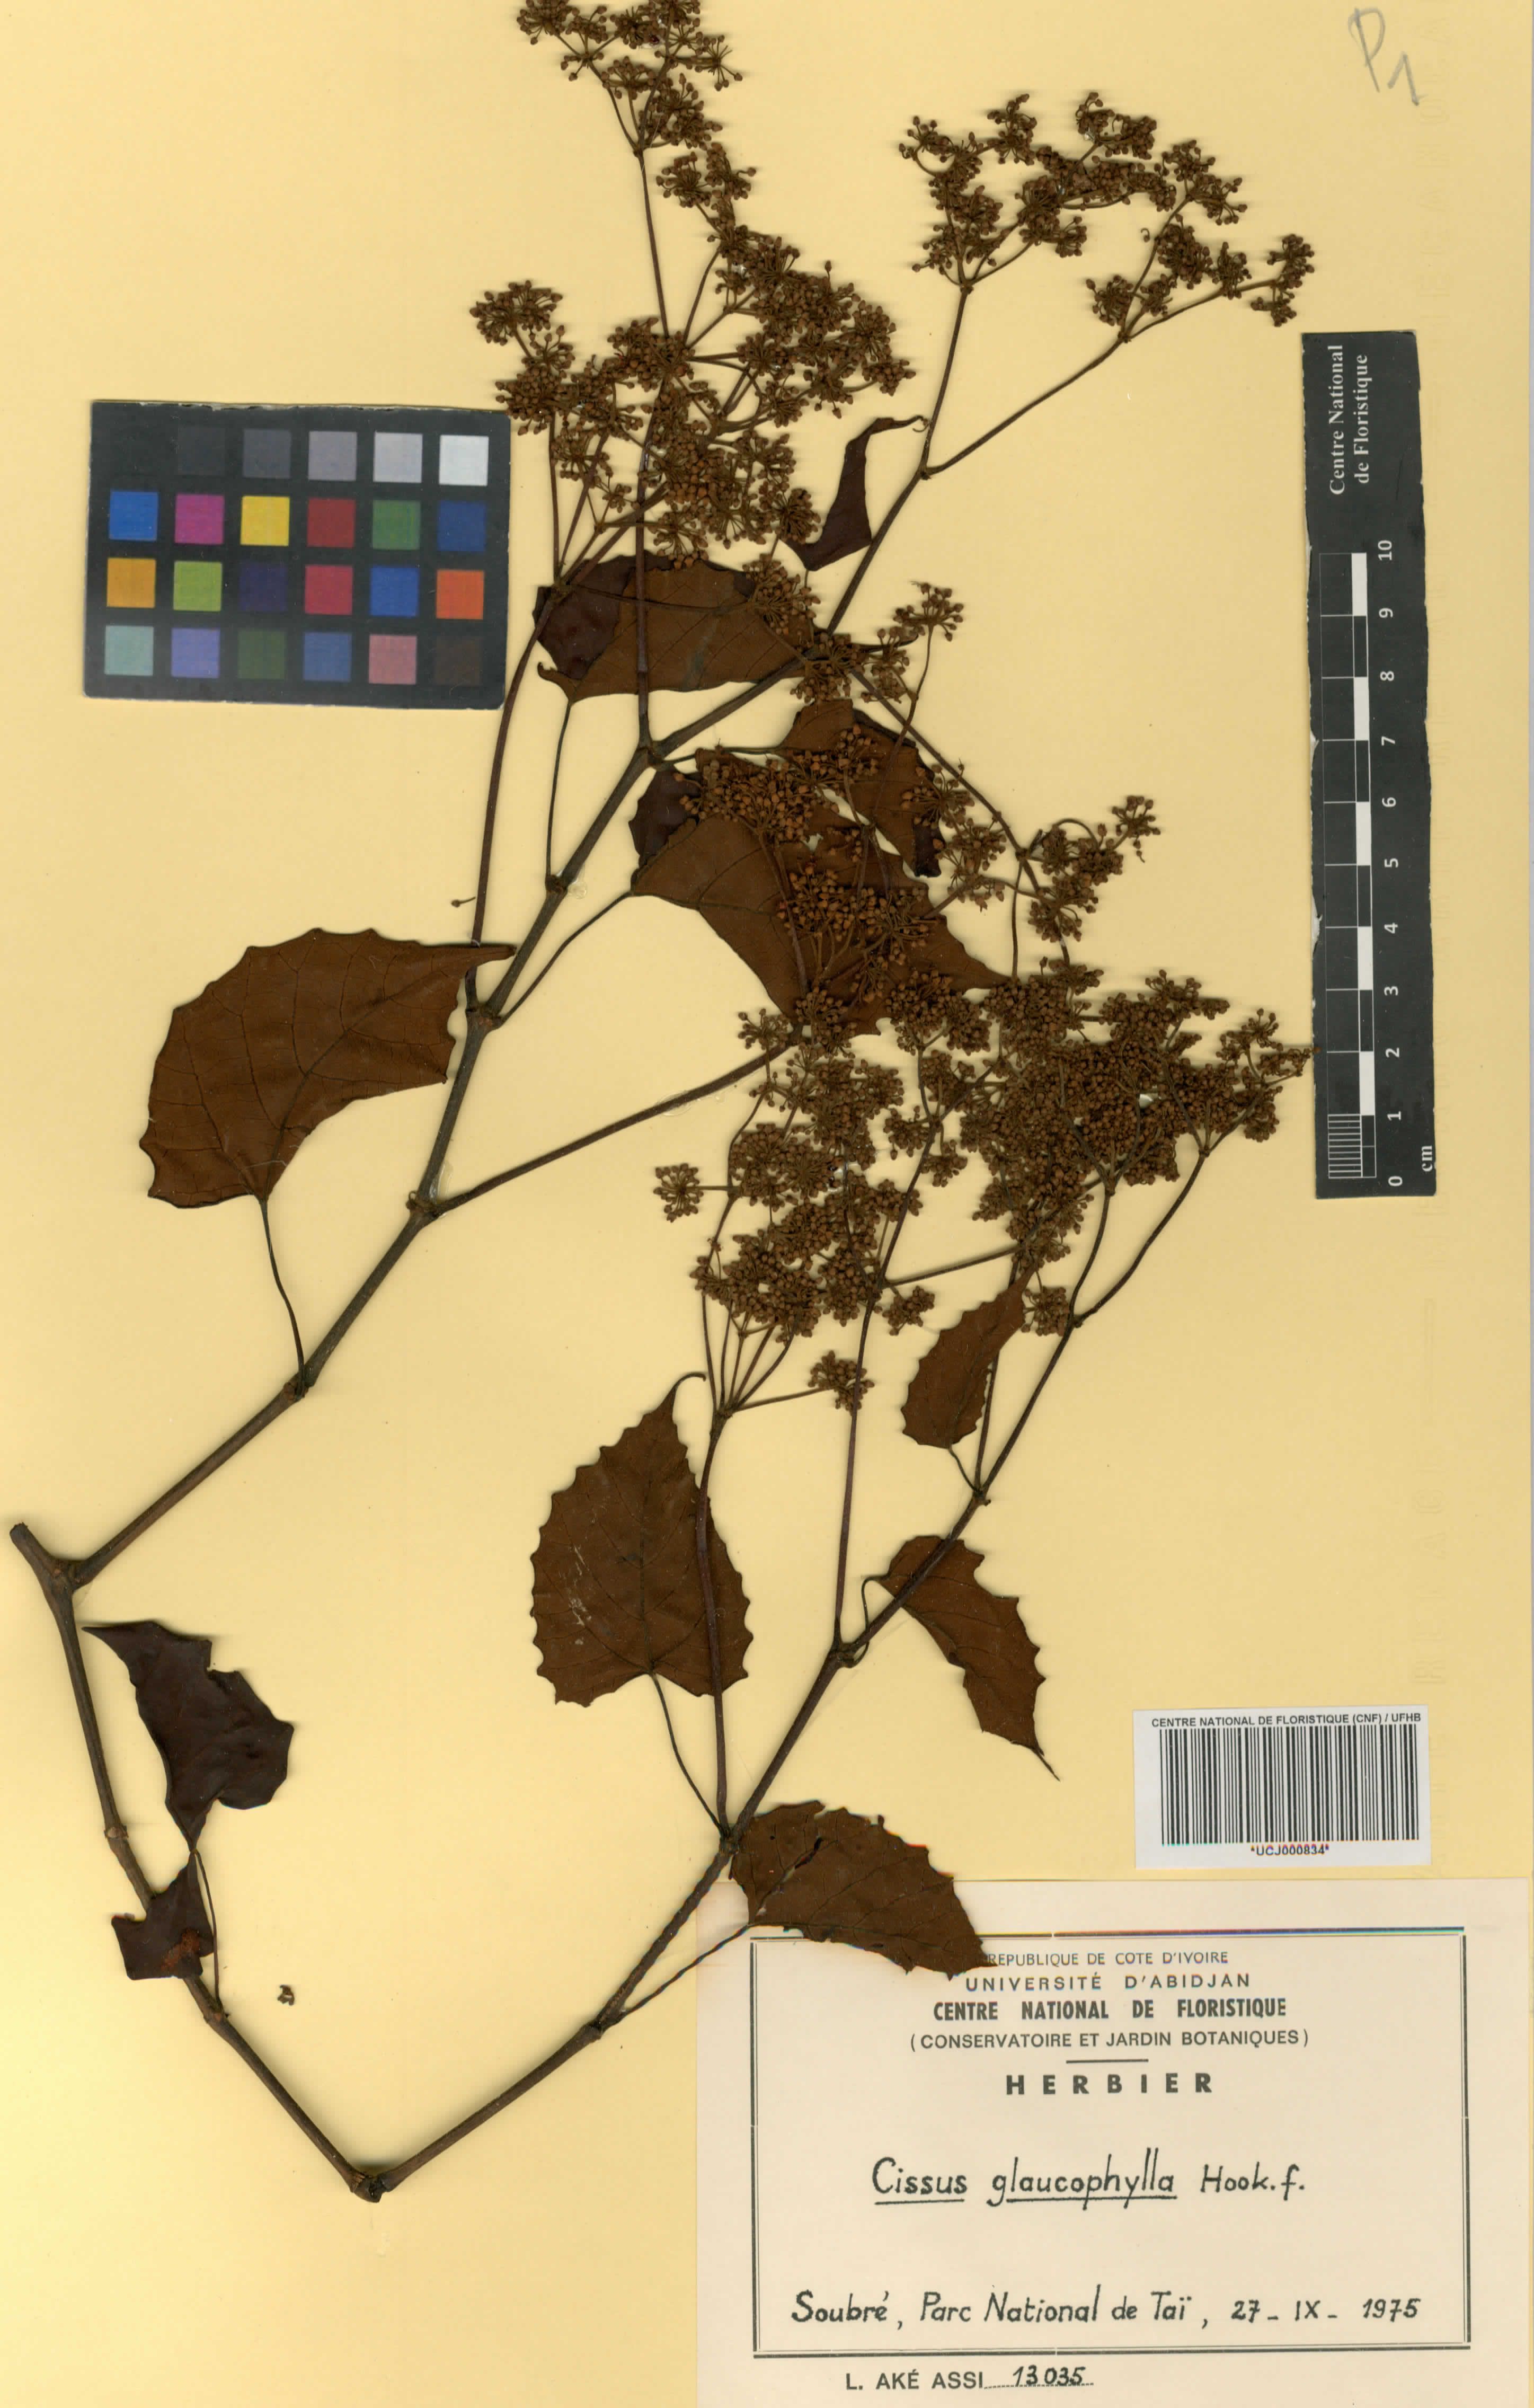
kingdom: Plantae
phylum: Tracheophyta
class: Magnoliopsida
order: Vitales
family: Vitaceae
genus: Cissus
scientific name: Cissus glaucophylla
